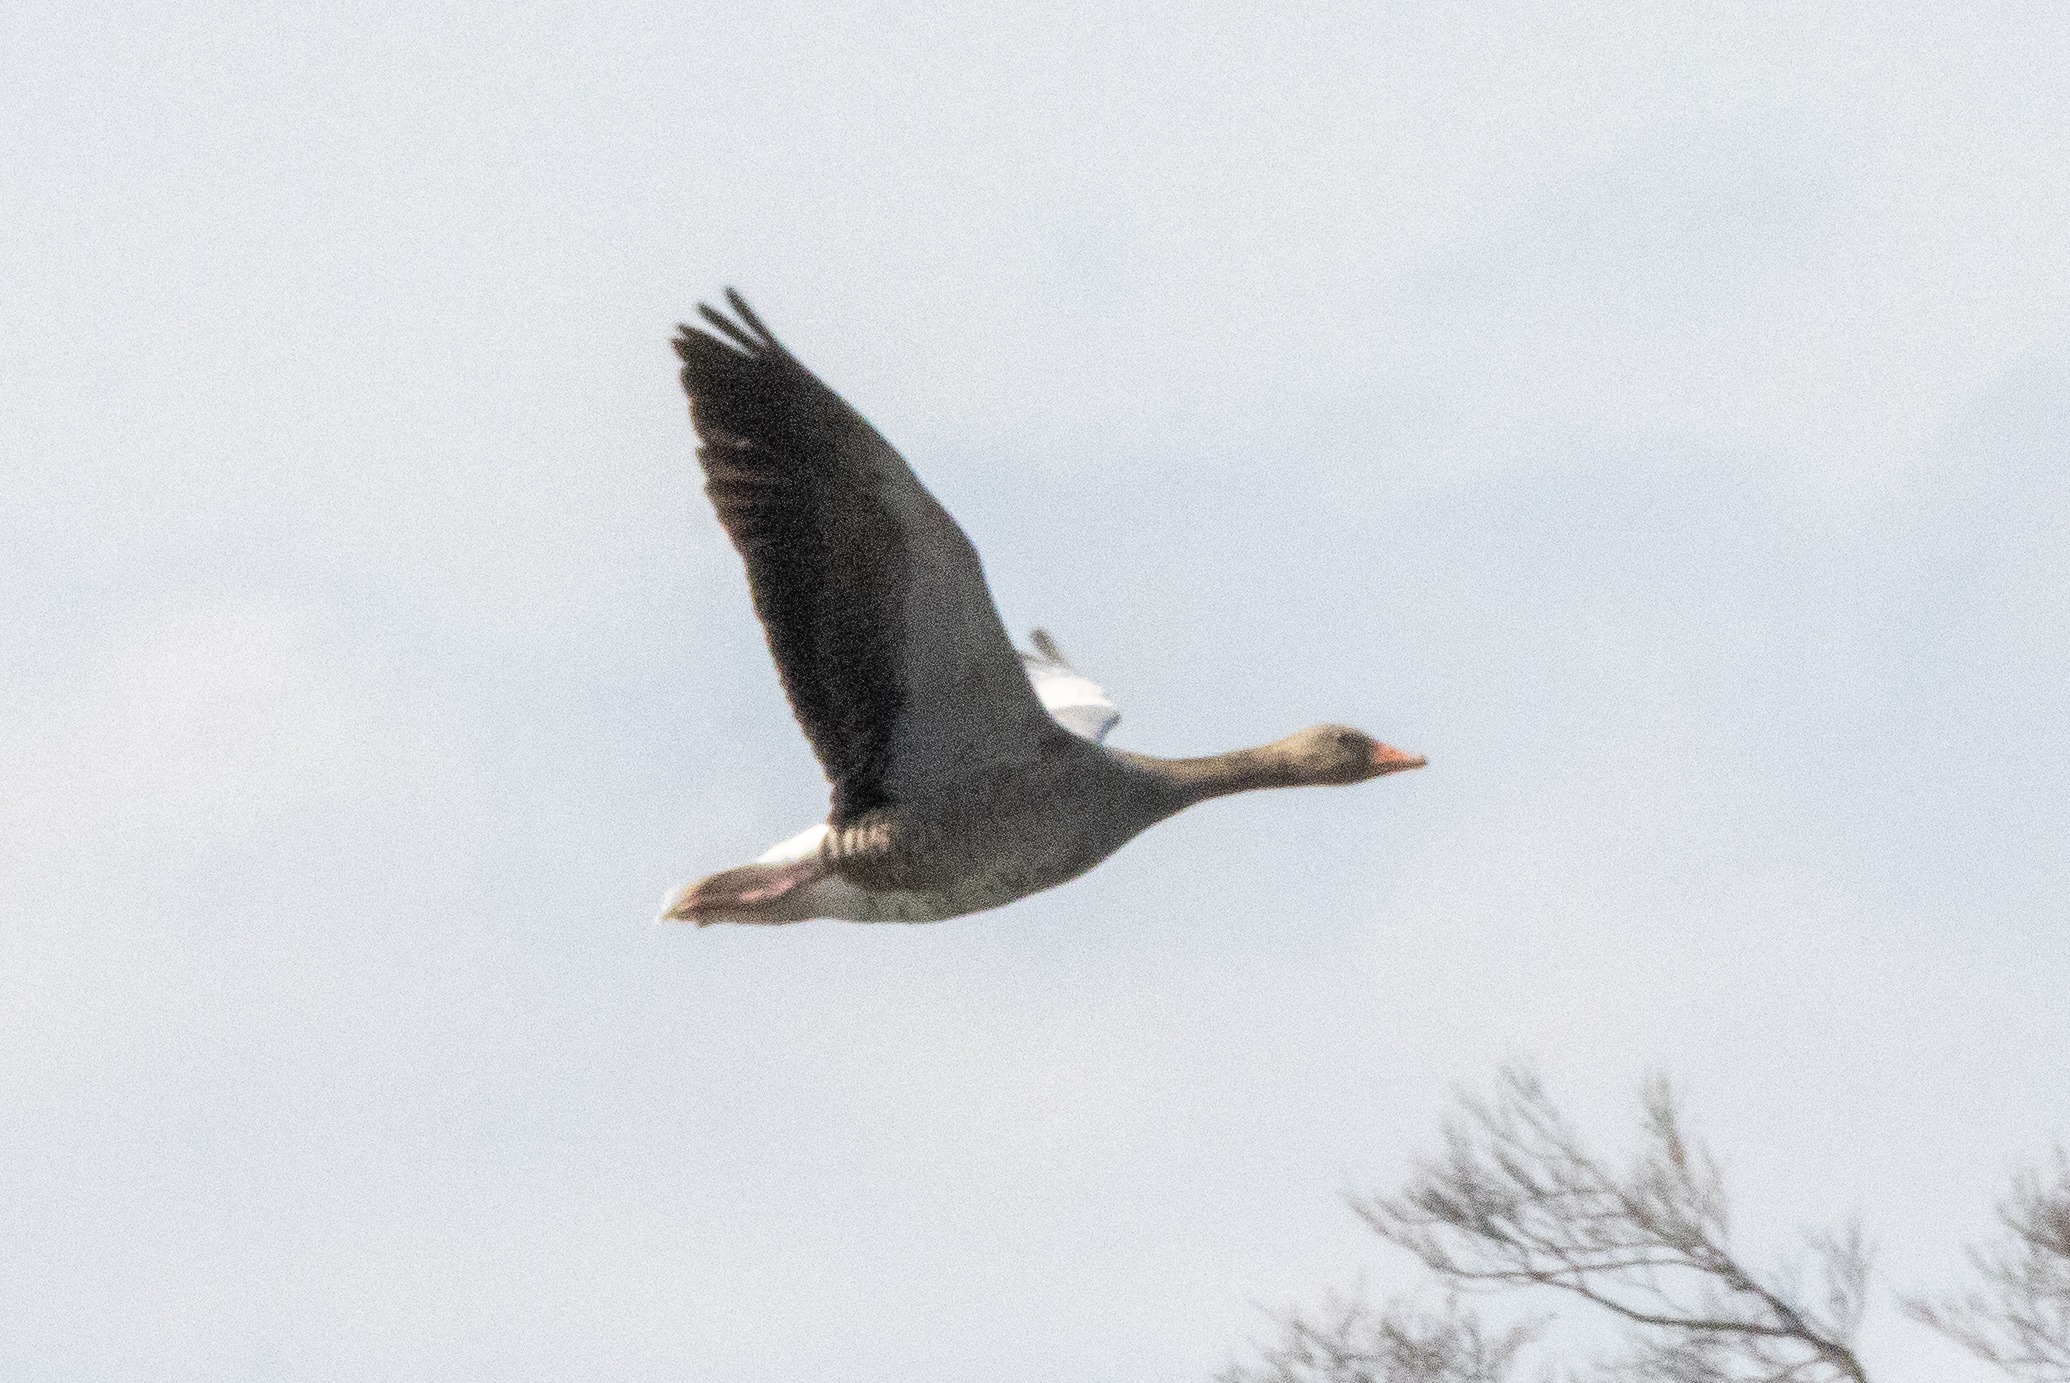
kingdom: Animalia
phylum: Chordata
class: Aves
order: Anseriformes
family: Anatidae
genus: Anser
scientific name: Anser anser
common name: Grågås
